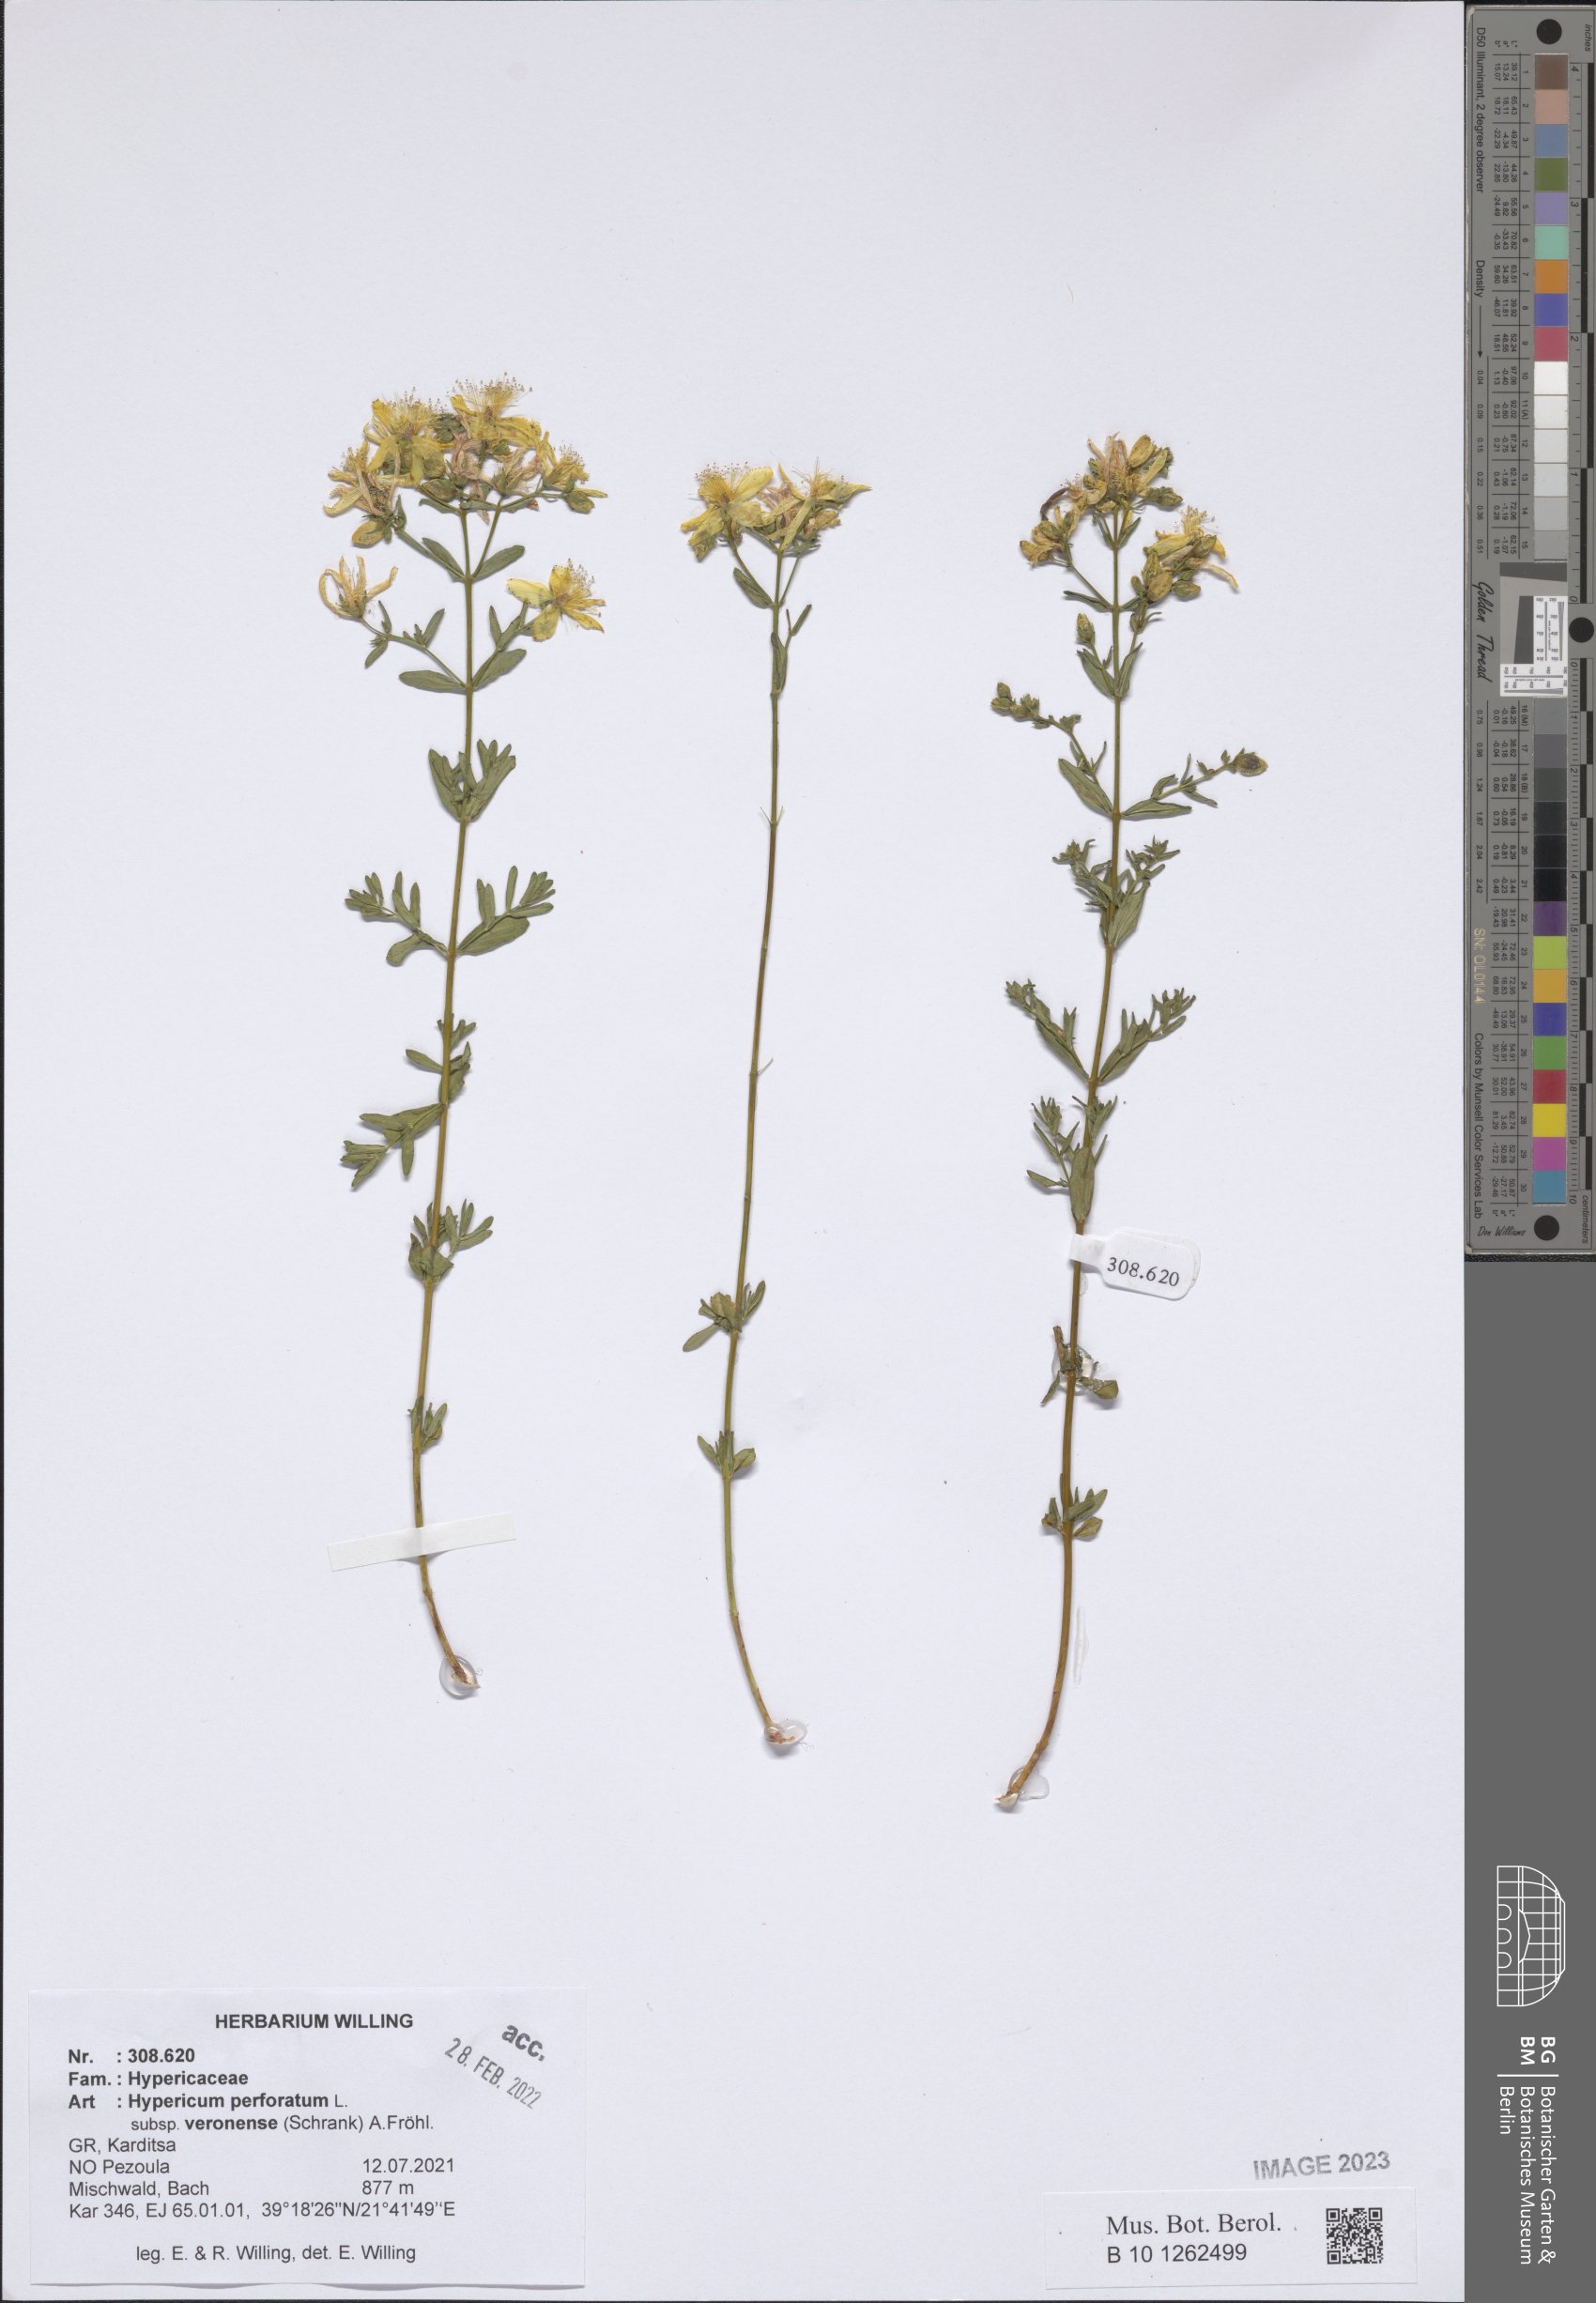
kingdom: Plantae
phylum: Tracheophyta
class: Magnoliopsida
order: Malpighiales
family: Hypericaceae
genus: Hypericum
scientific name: Hypericum veronense
